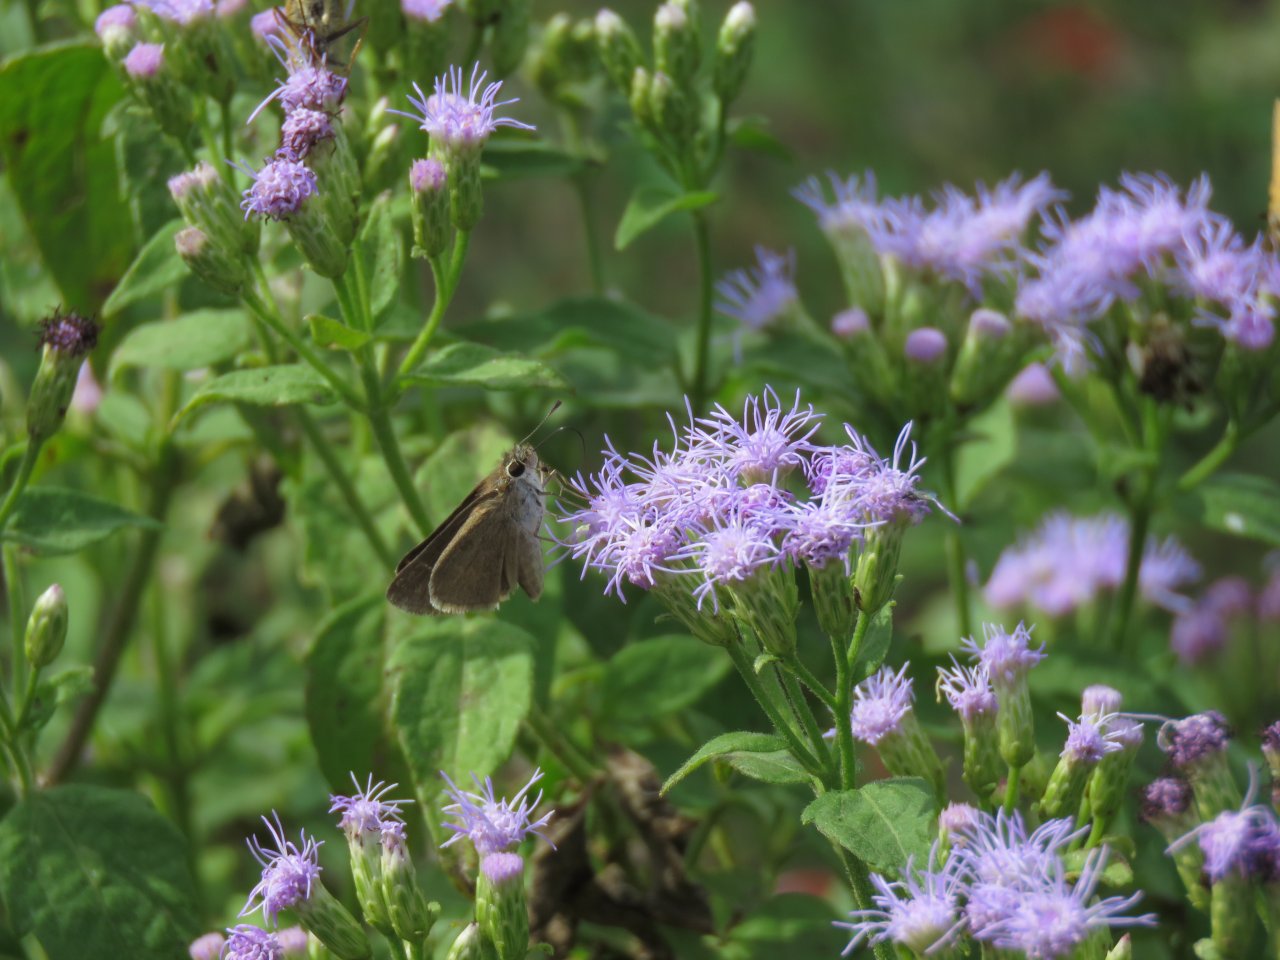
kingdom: Animalia
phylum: Arthropoda
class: Insecta
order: Lepidoptera
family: Hesperiidae
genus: Polites
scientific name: Polites themistocles
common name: Tawny-edged Skipper
